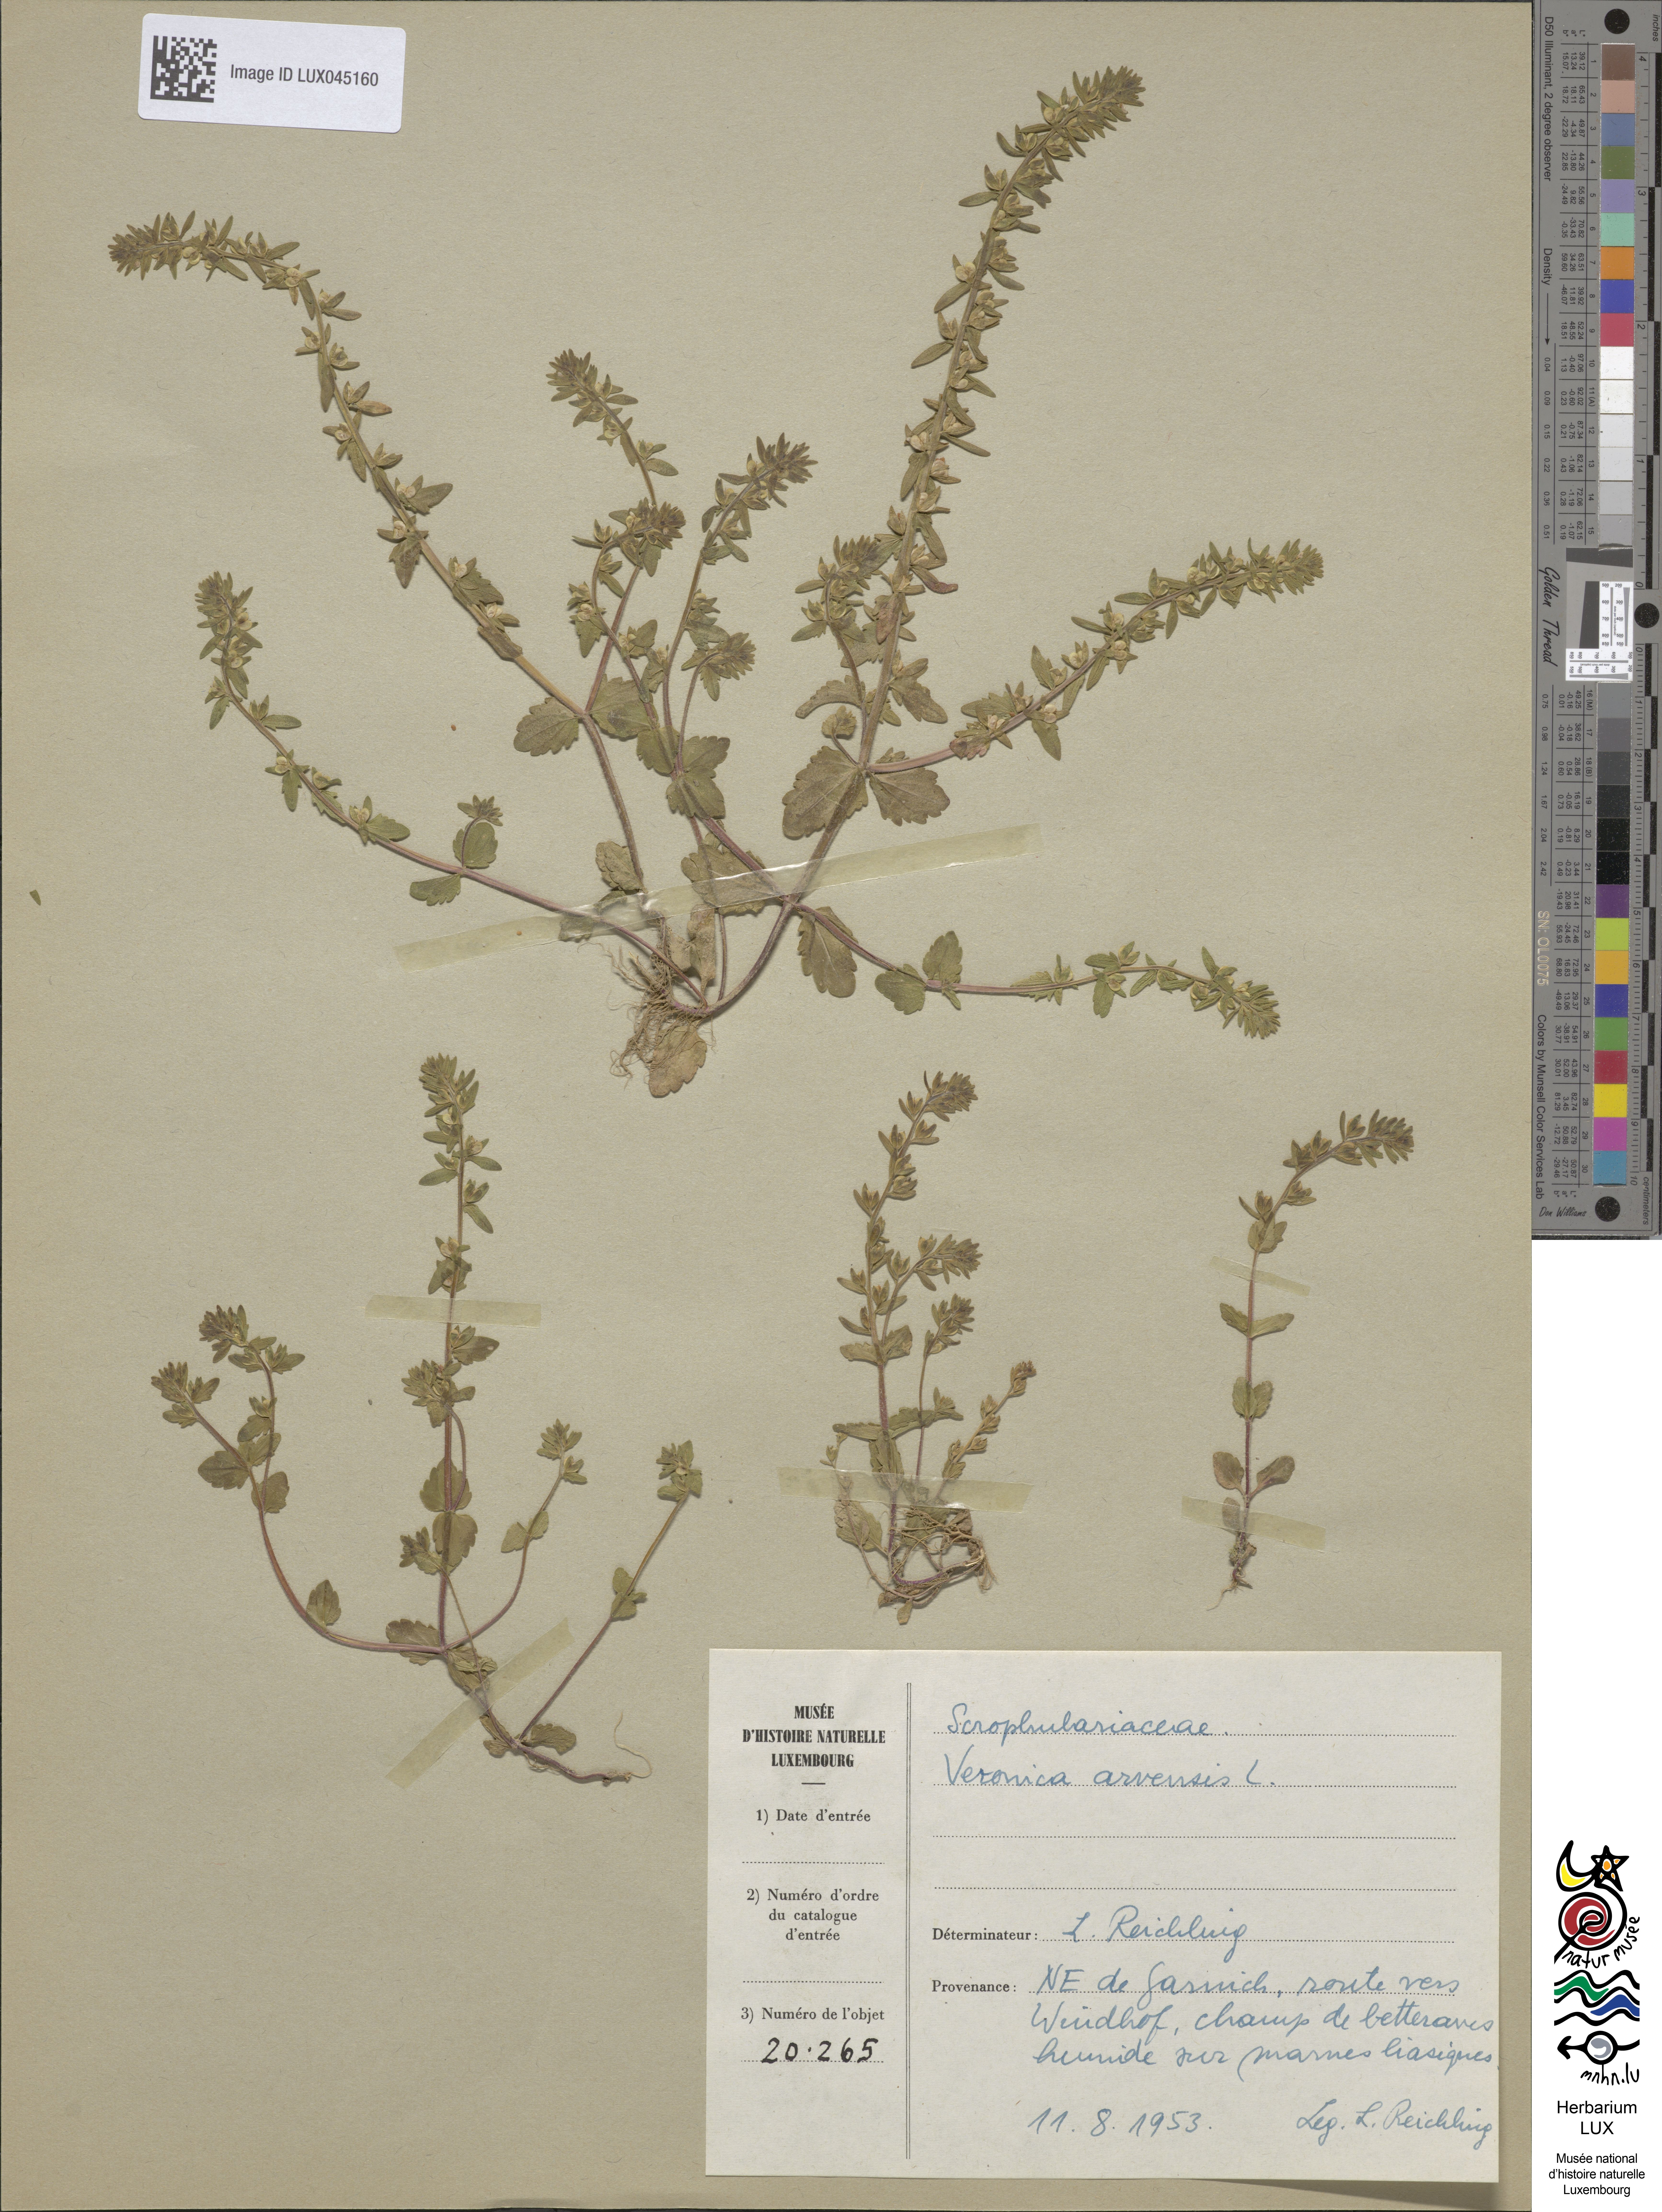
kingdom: Plantae
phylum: Tracheophyta
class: Magnoliopsida
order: Lamiales
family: Plantaginaceae
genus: Veronica
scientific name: Veronica arvensis
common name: Corn speedwell
